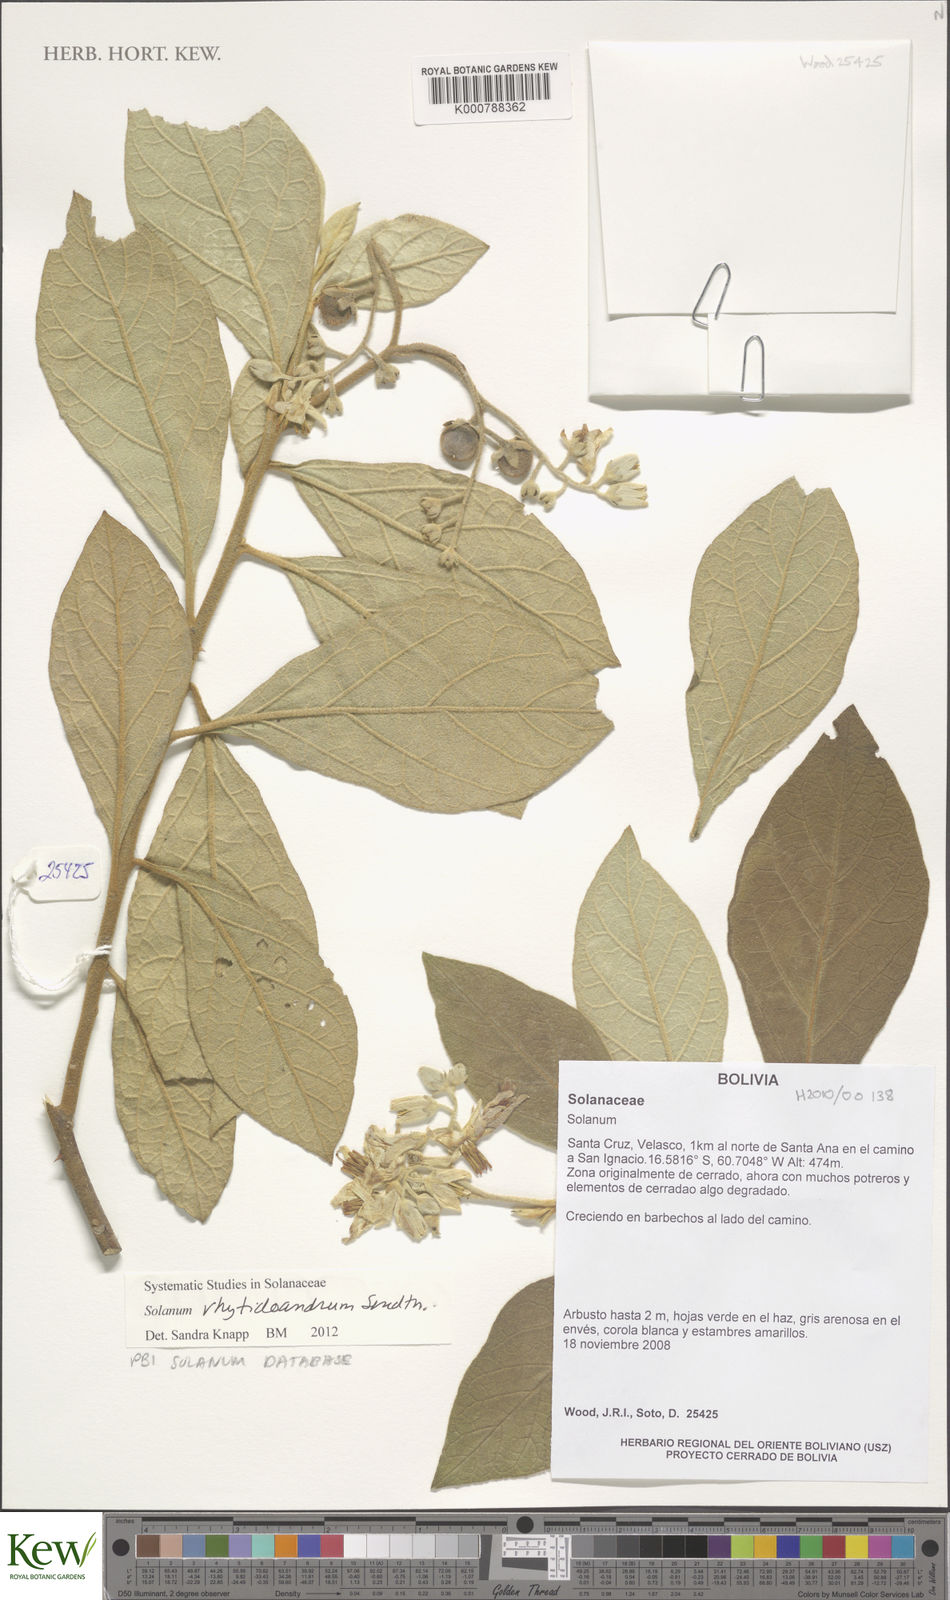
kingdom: Plantae
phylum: Tracheophyta
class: Magnoliopsida
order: Solanales
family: Solanaceae
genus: Solanum
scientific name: Solanum rhytidoandrum
